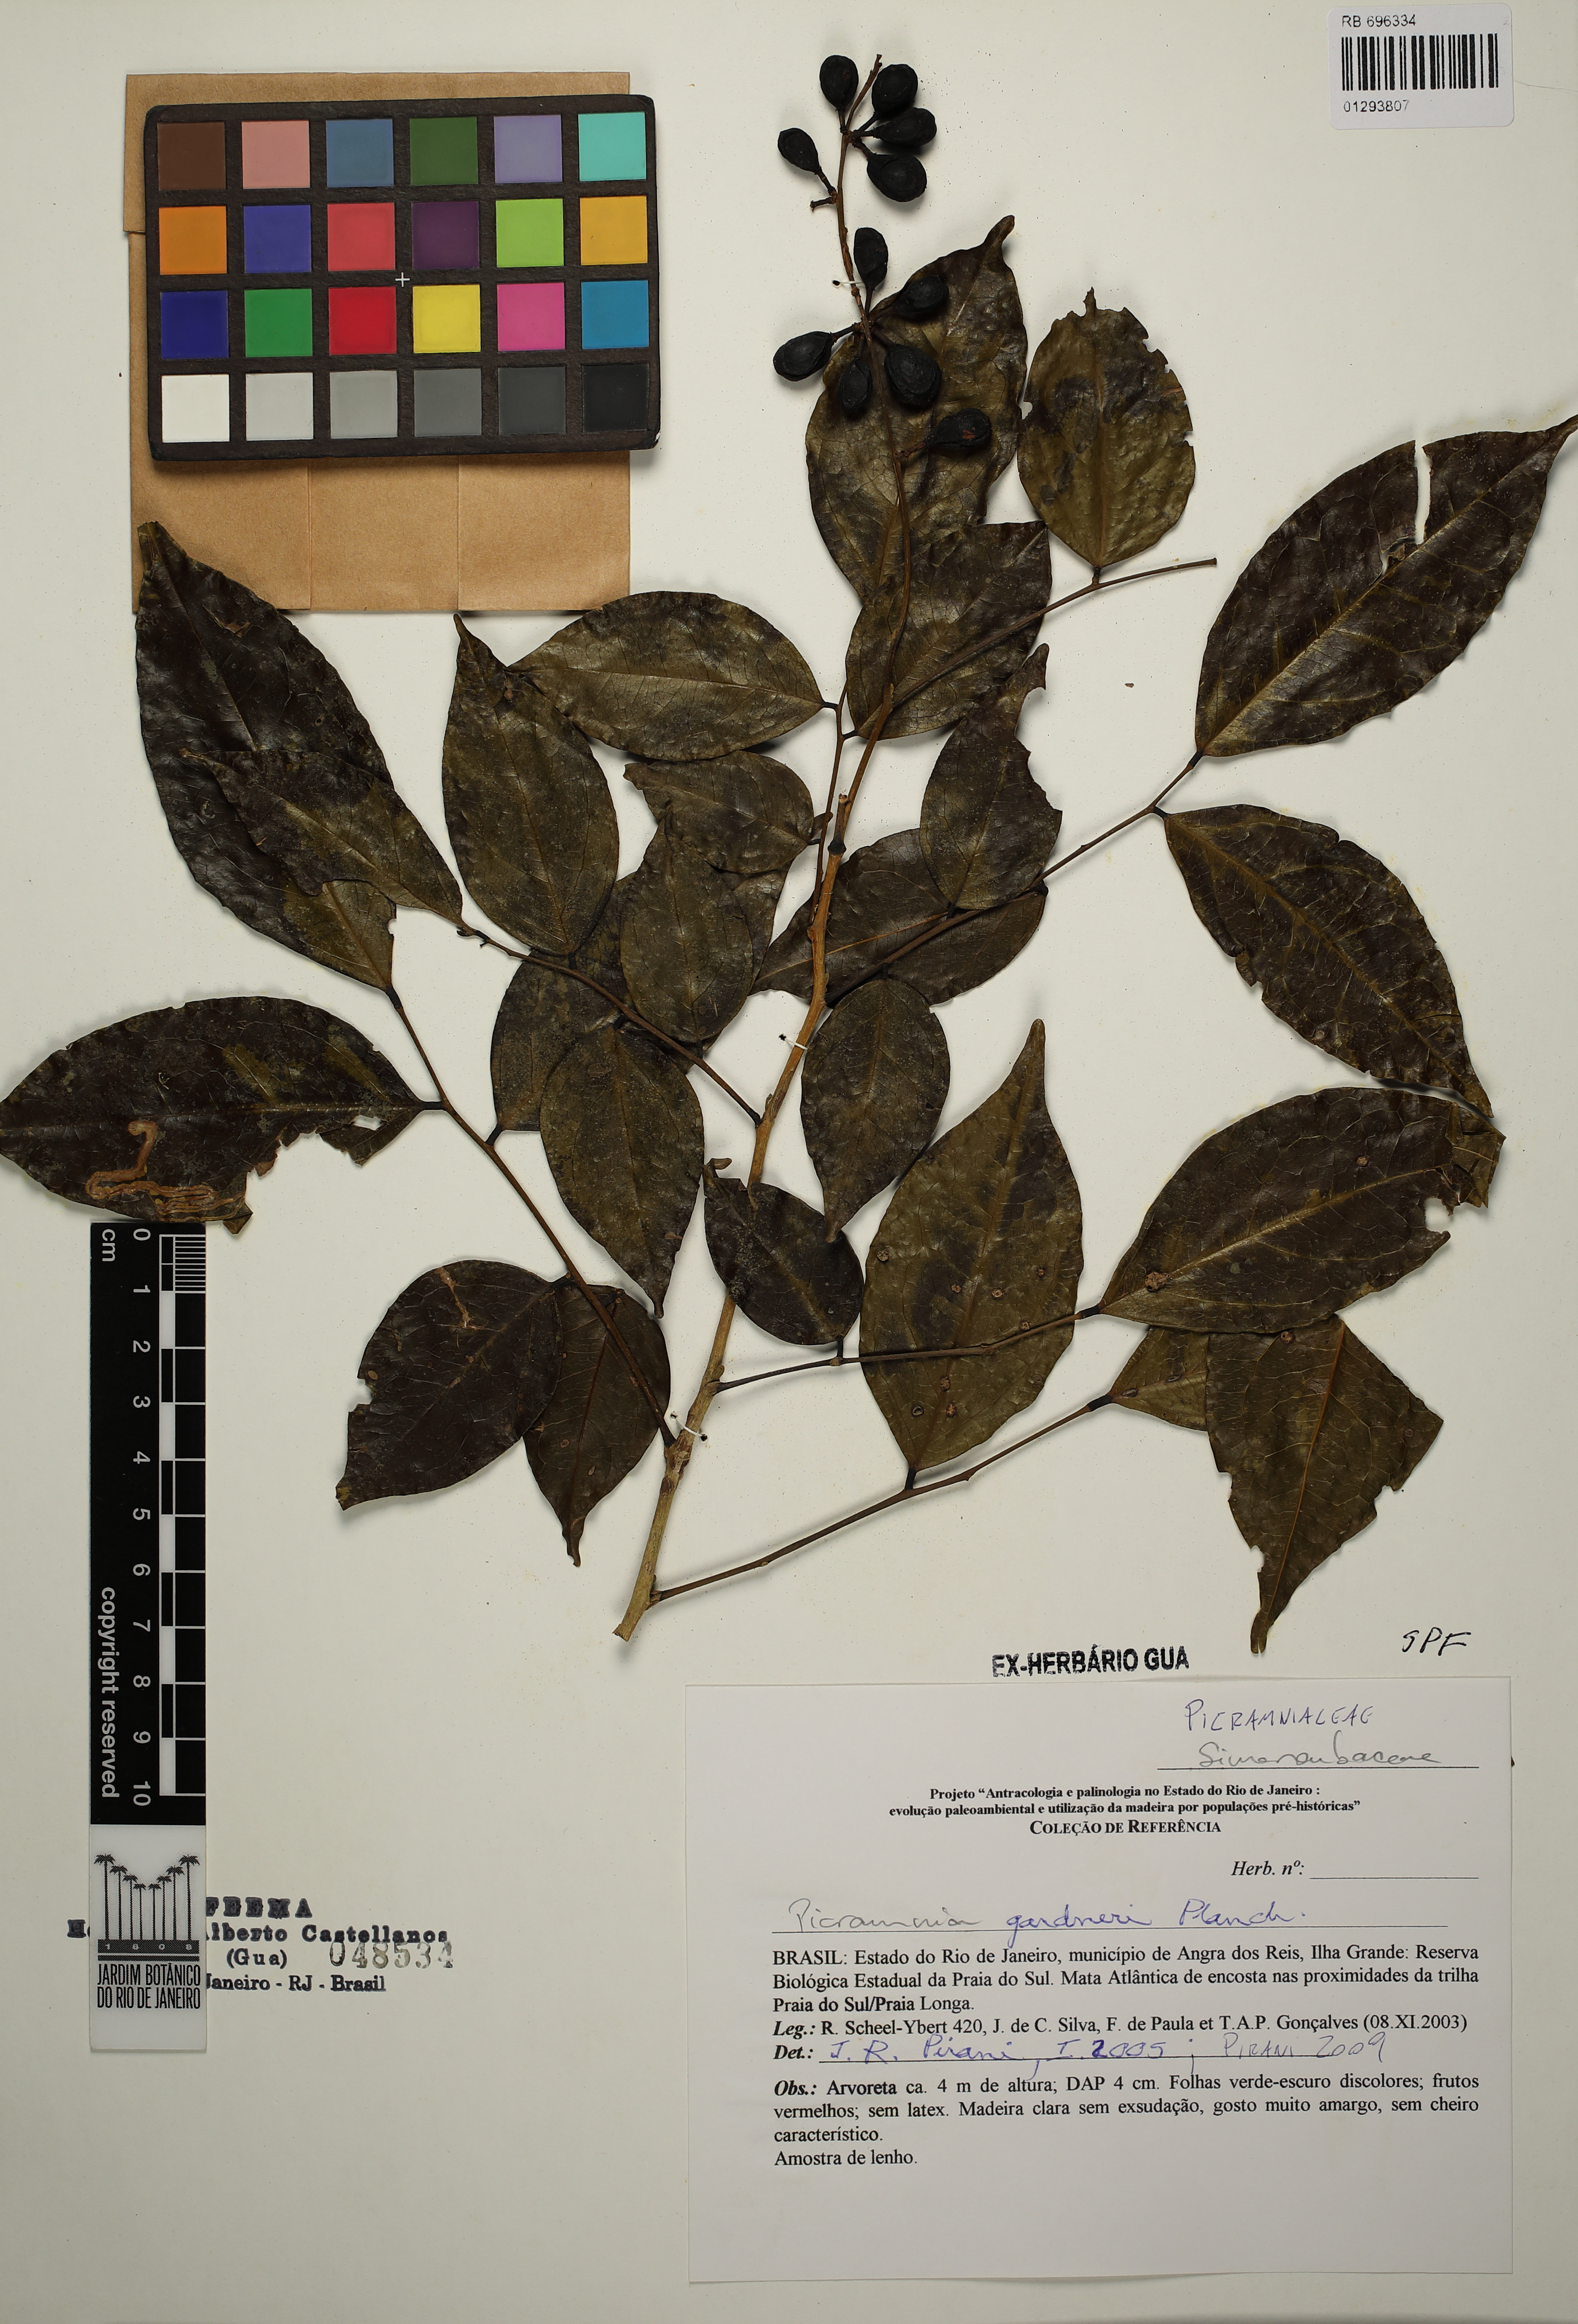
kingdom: Plantae
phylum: Tracheophyta
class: Magnoliopsida
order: Picramniales
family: Picramniaceae
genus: Picramnia
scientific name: Picramnia gardneri
